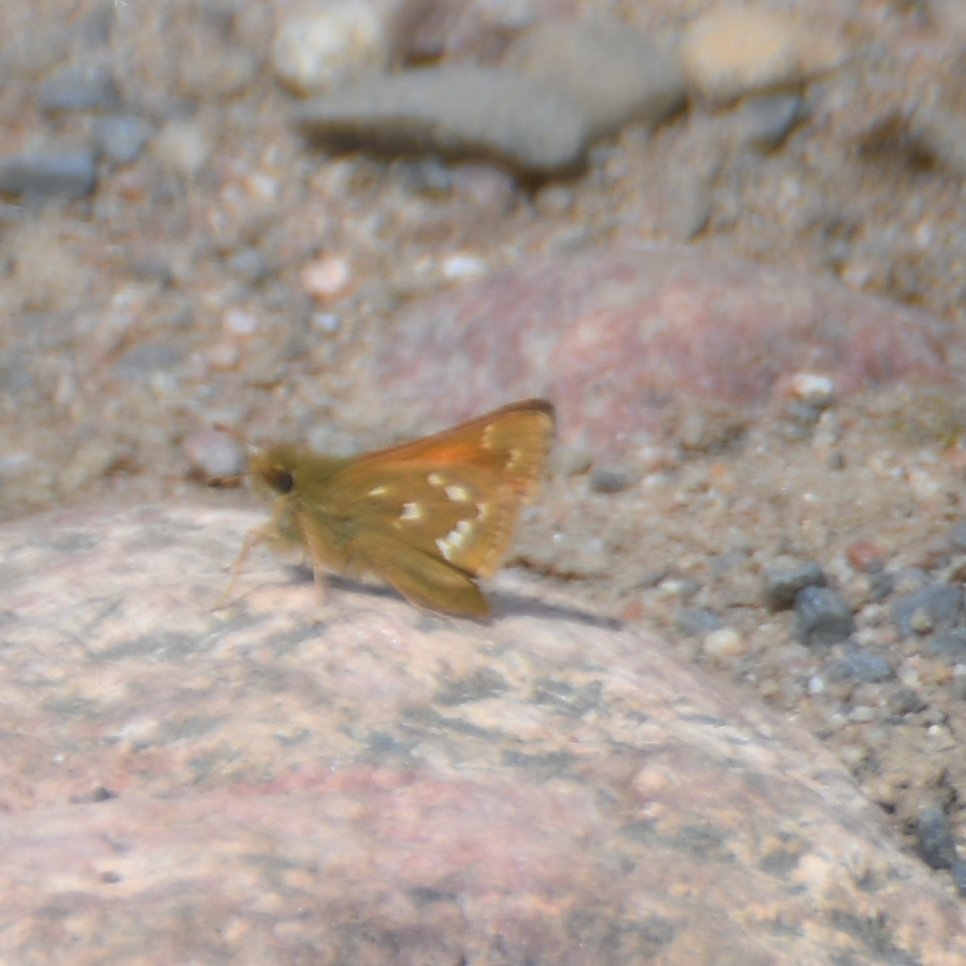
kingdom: Animalia
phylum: Arthropoda
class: Insecta
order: Lepidoptera
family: Hesperiidae
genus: Hesperia
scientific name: Hesperia comma
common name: Common Branded Skipper
